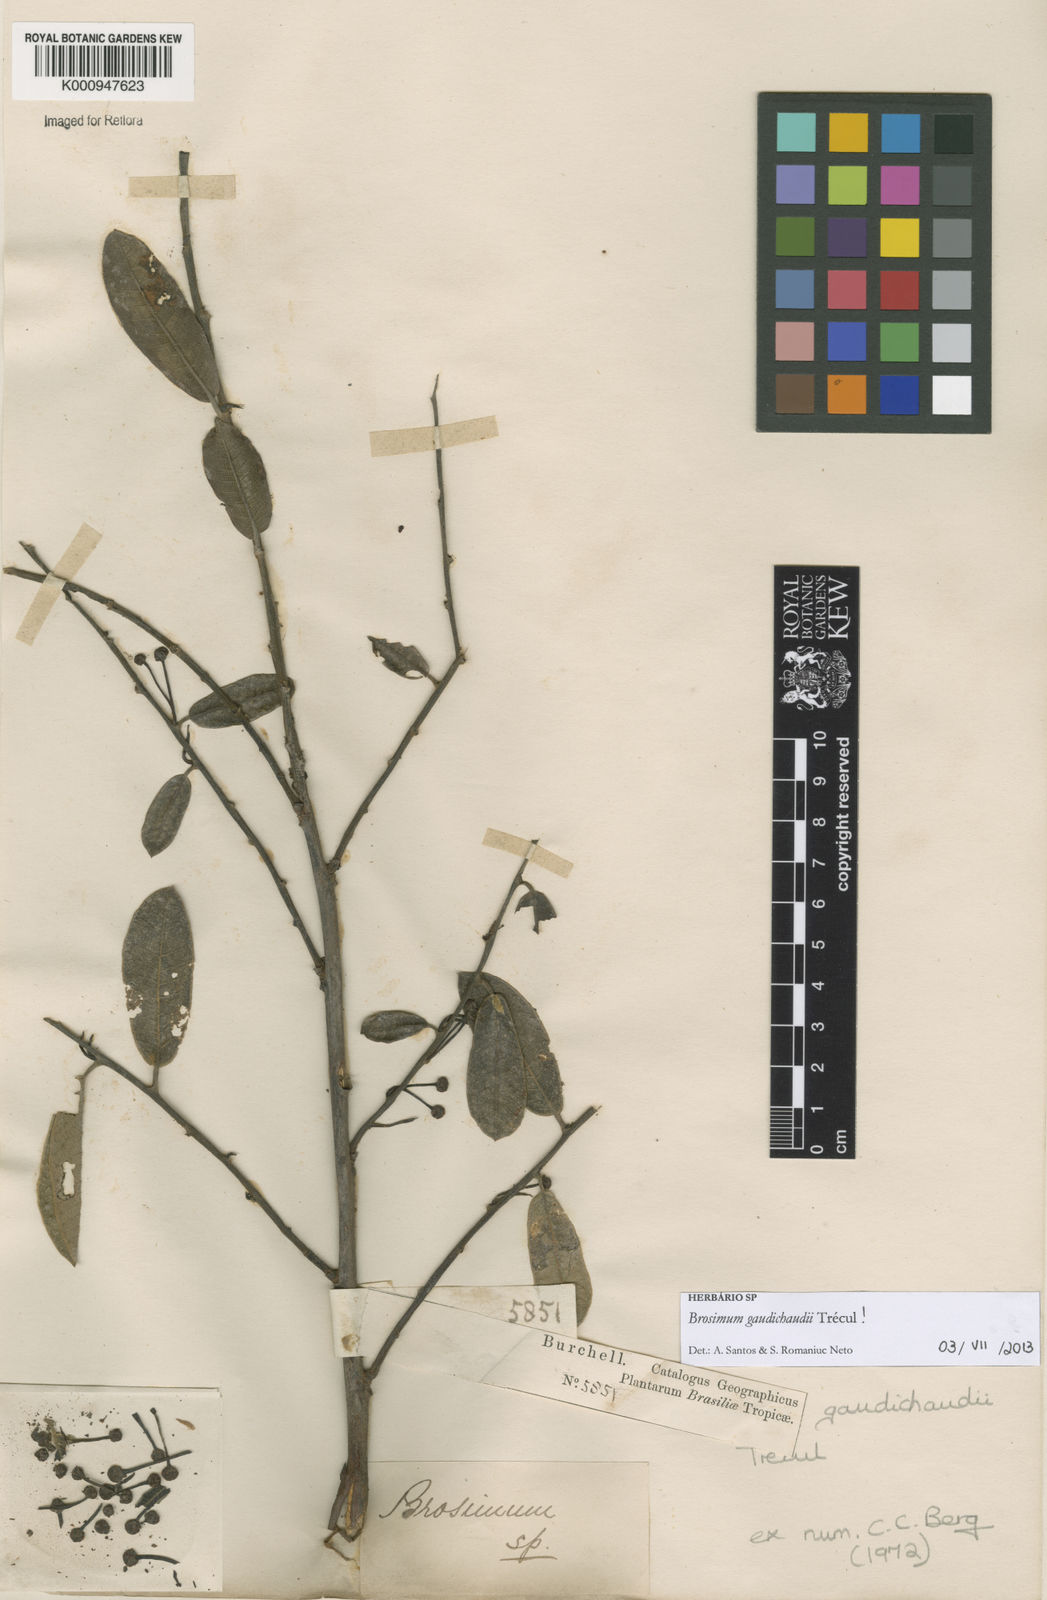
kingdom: Plantae
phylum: Tracheophyta
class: Magnoliopsida
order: Rosales
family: Moraceae
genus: Brosimum
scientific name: Brosimum
